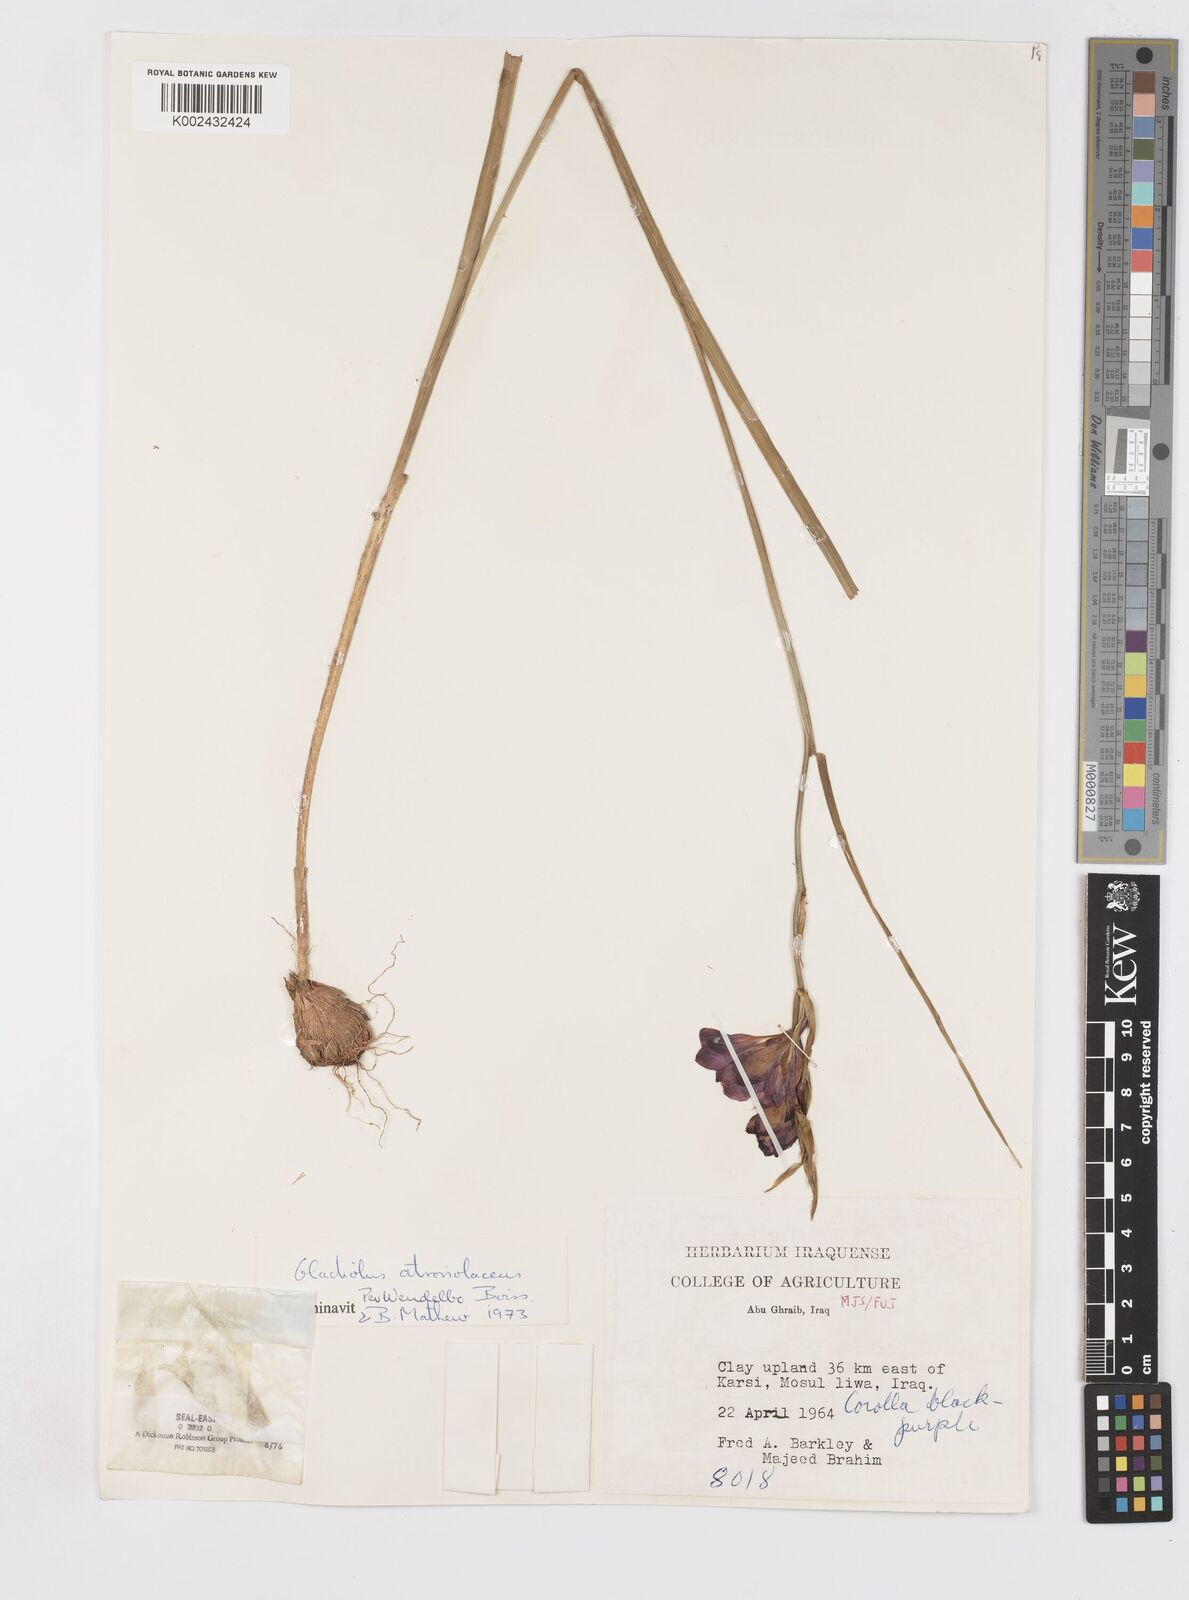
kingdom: Plantae
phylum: Tracheophyta
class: Liliopsida
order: Asparagales
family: Iridaceae
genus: Gladiolus
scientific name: Gladiolus atroviolaceus
